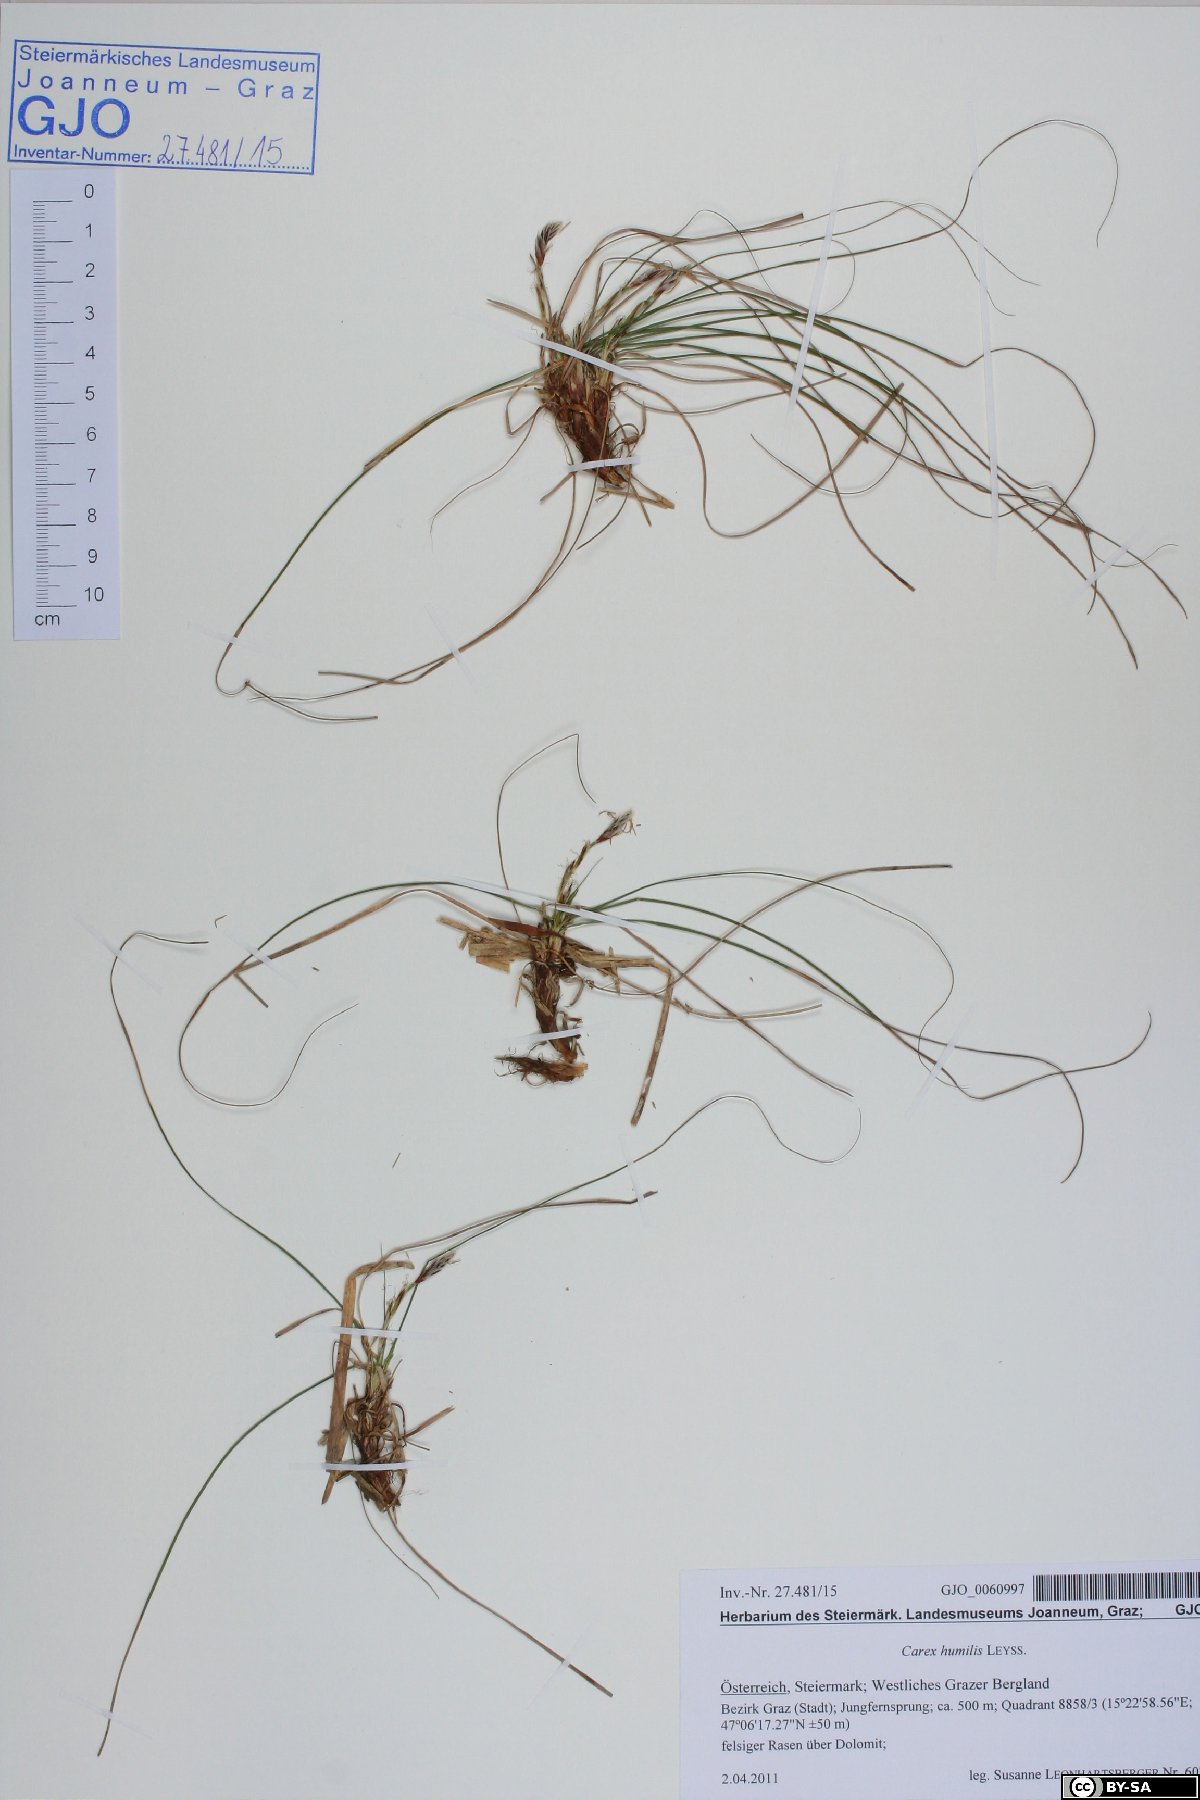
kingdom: Plantae
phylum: Tracheophyta
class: Liliopsida
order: Poales
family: Cyperaceae
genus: Carex
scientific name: Carex humilis
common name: Dwarf sedge
